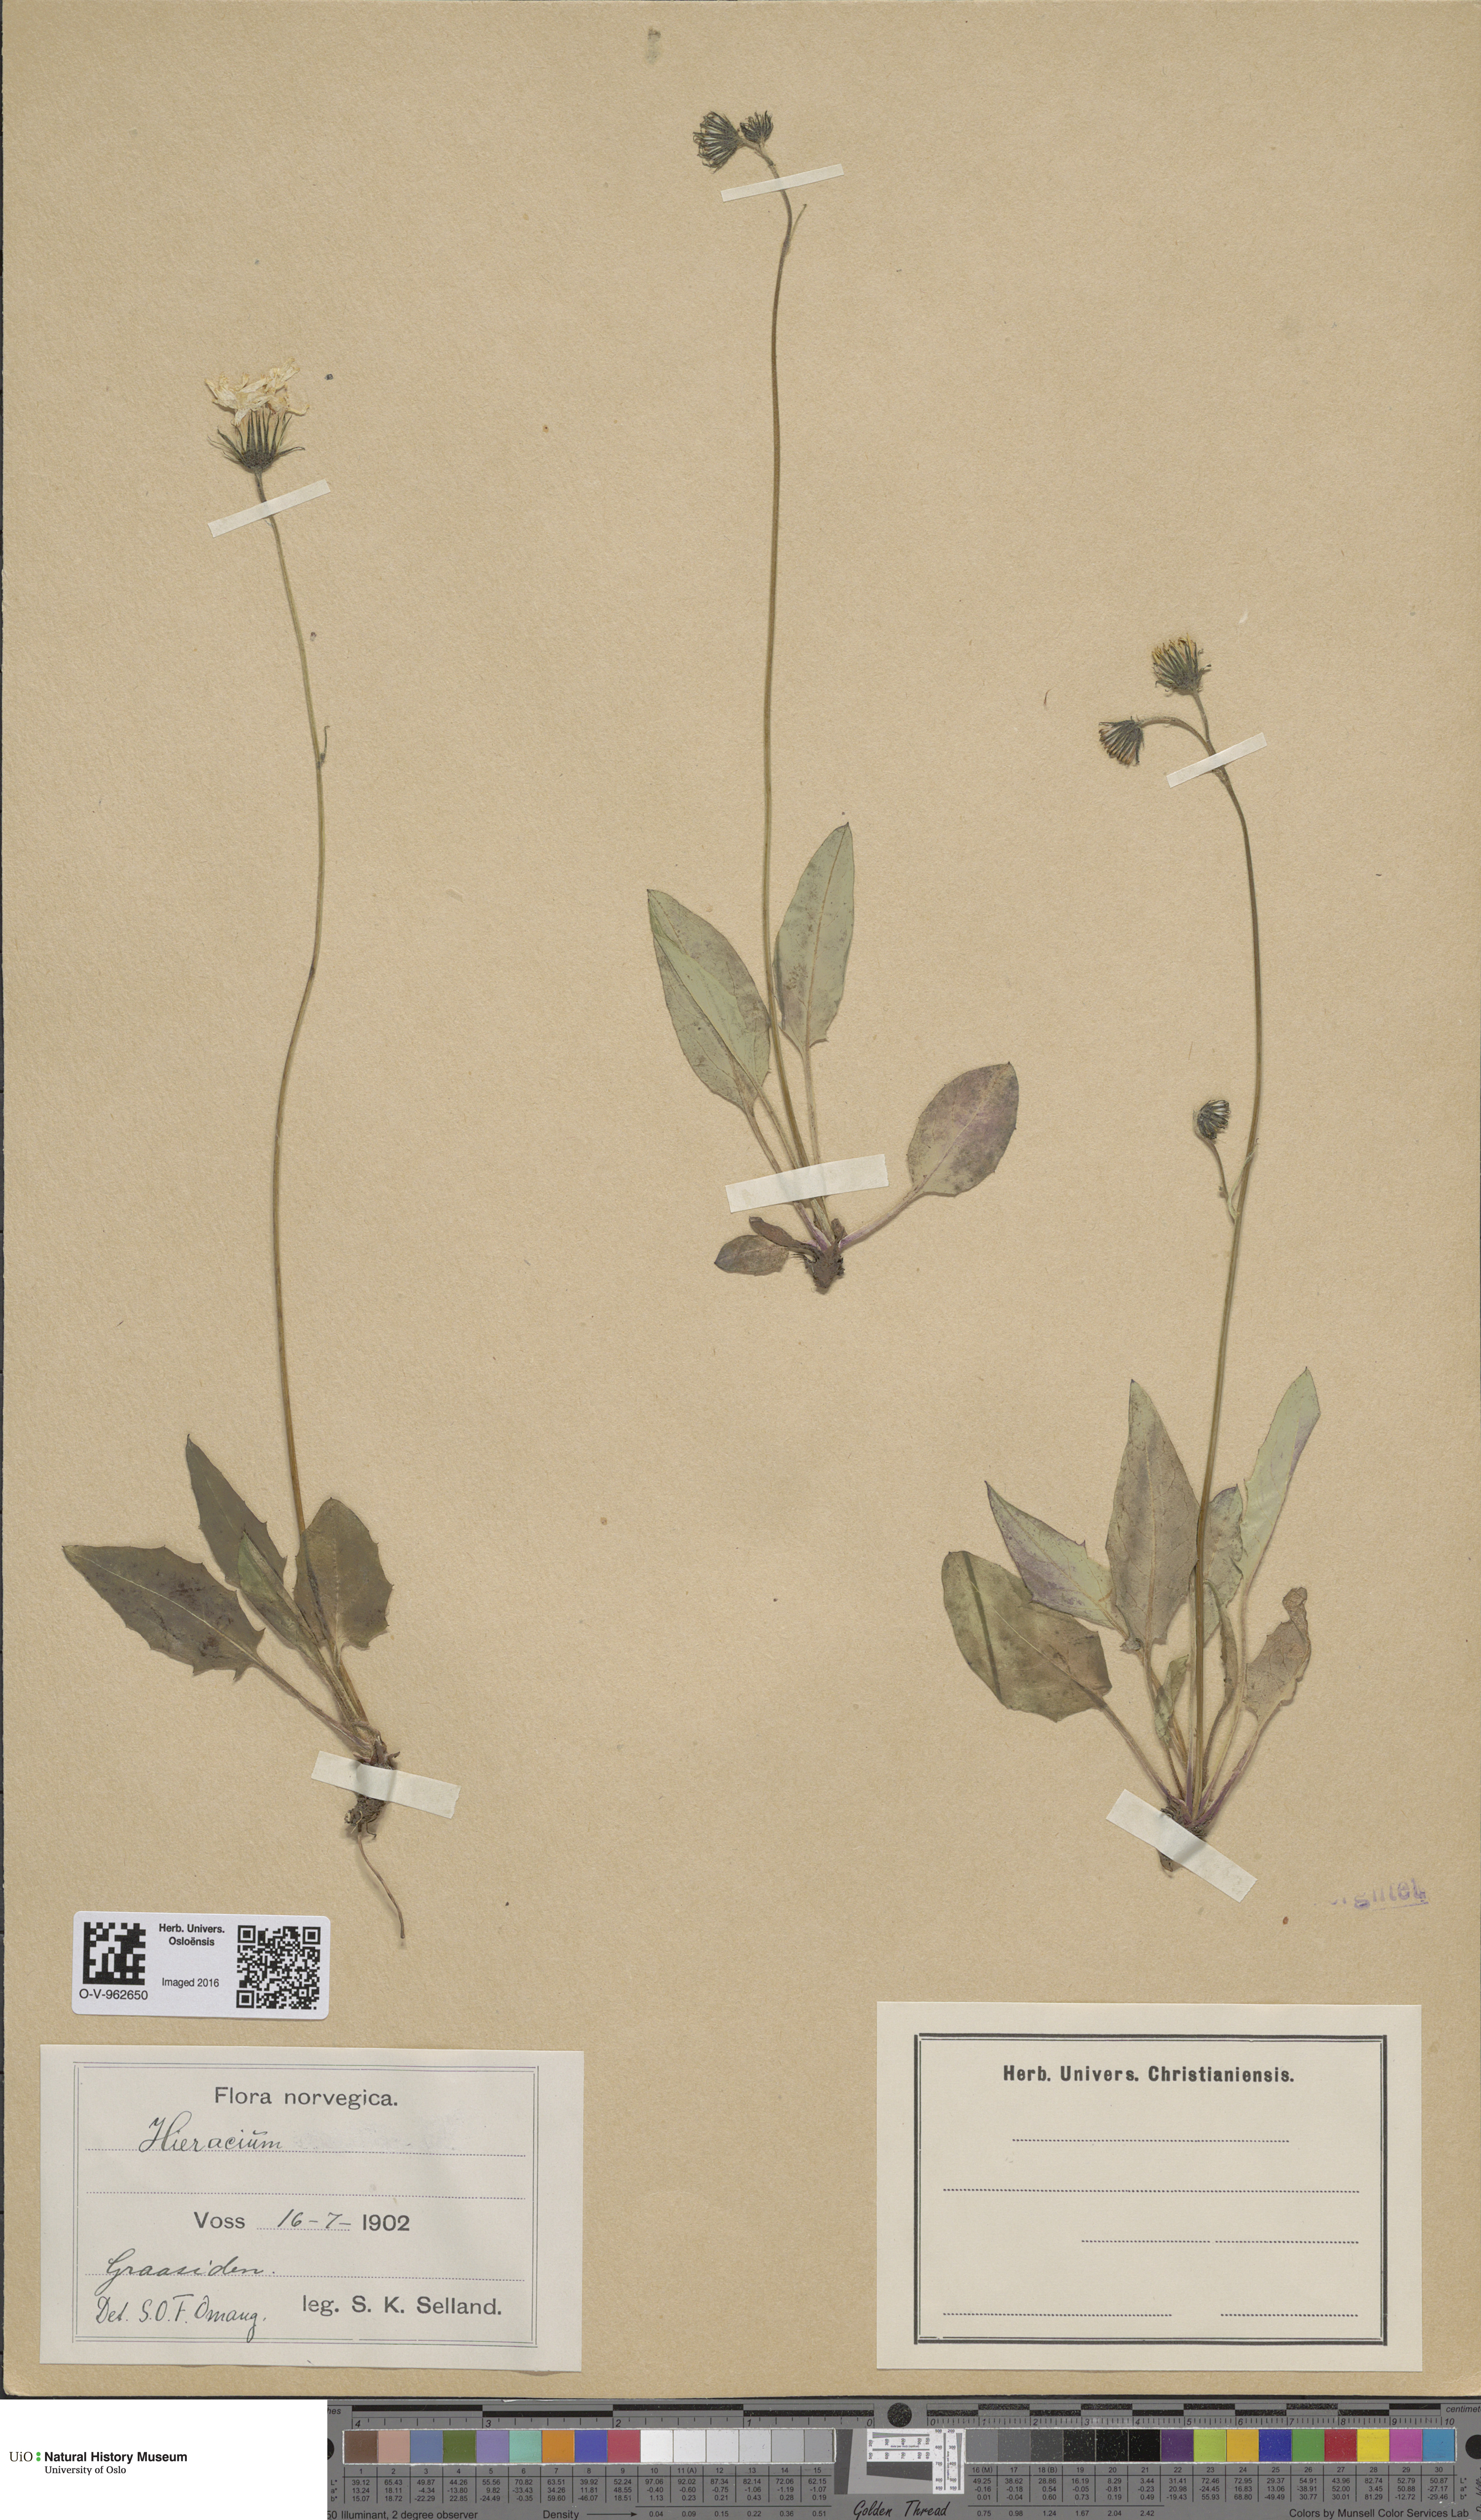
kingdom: Plantae
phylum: Tracheophyta
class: Magnoliopsida
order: Asterales
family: Asteraceae
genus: Hieracium
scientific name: Hieracium
